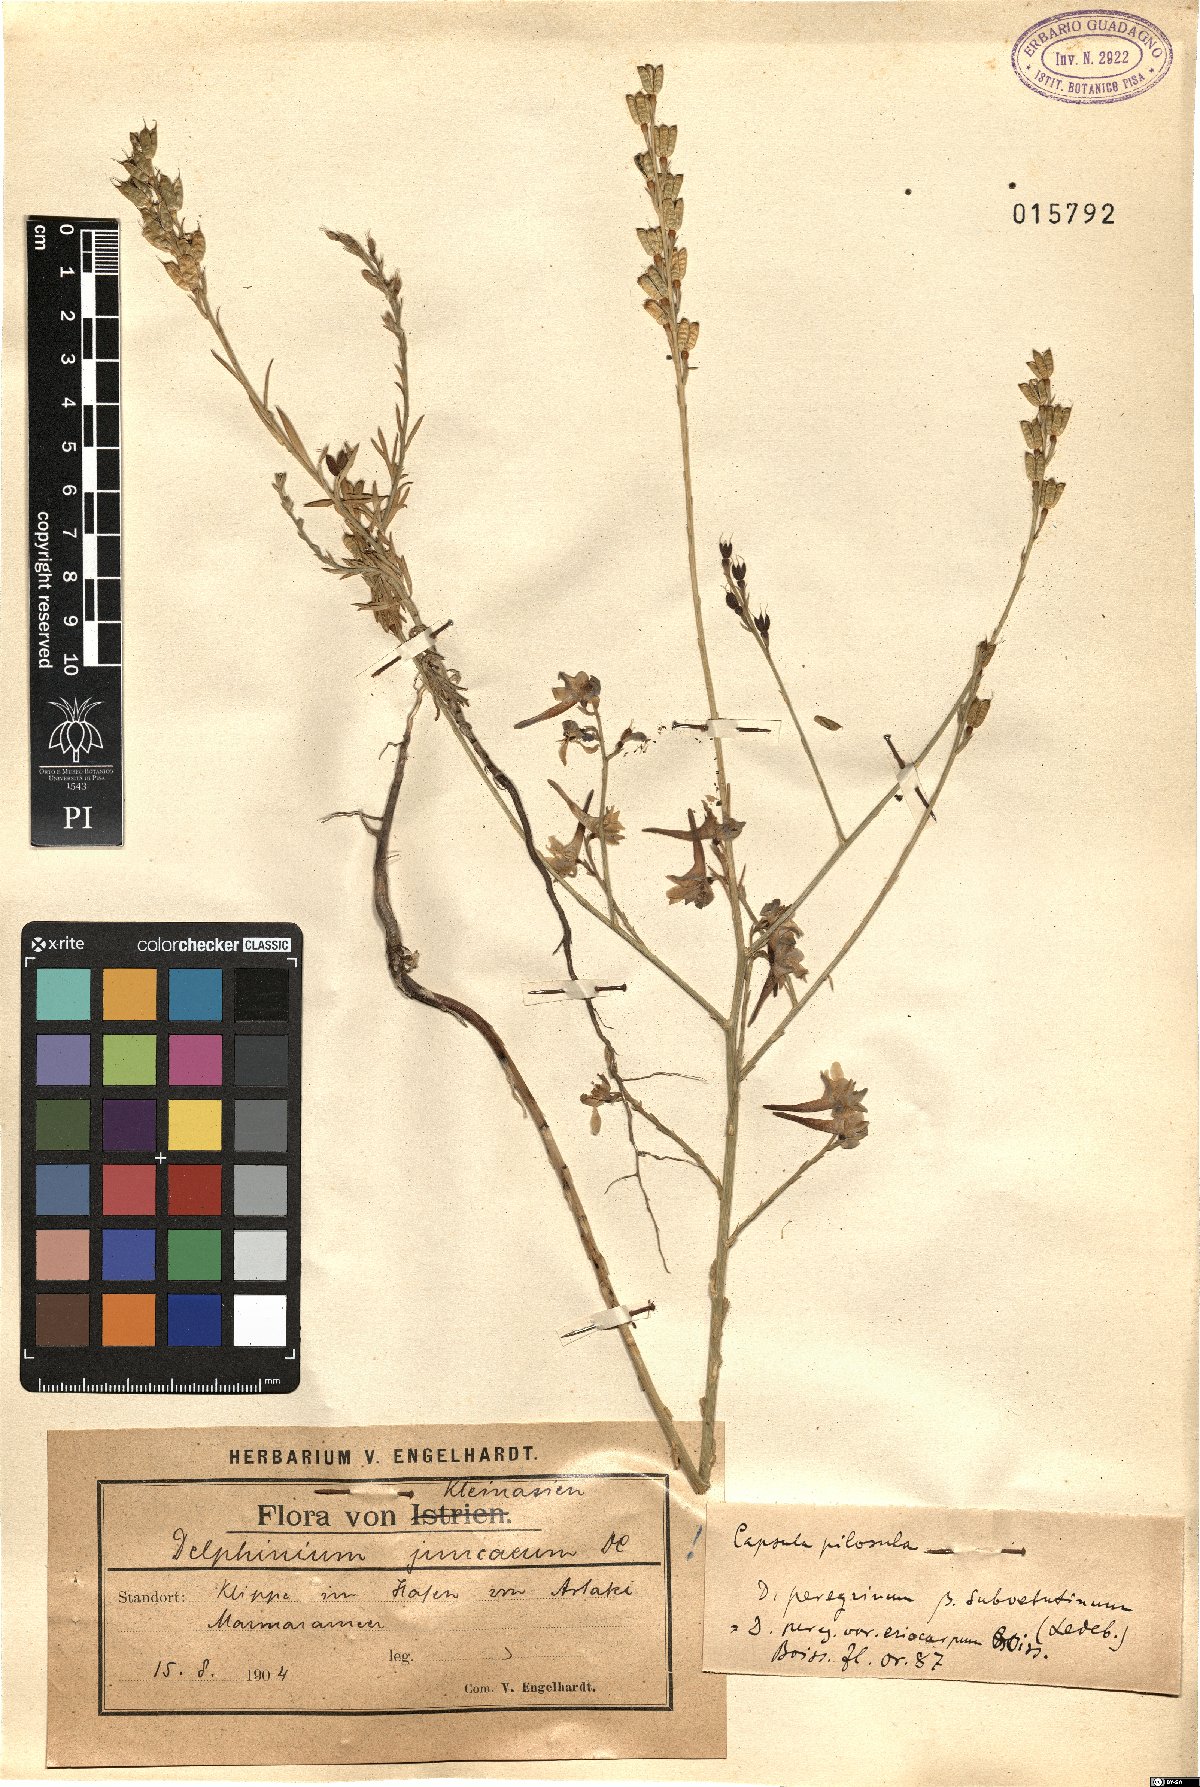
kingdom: Plantae
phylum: Tracheophyta
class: Magnoliopsida
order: Ranunculales
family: Ranunculaceae
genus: Delphinium
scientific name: Delphinium peregrinum
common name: Violet larkspur
